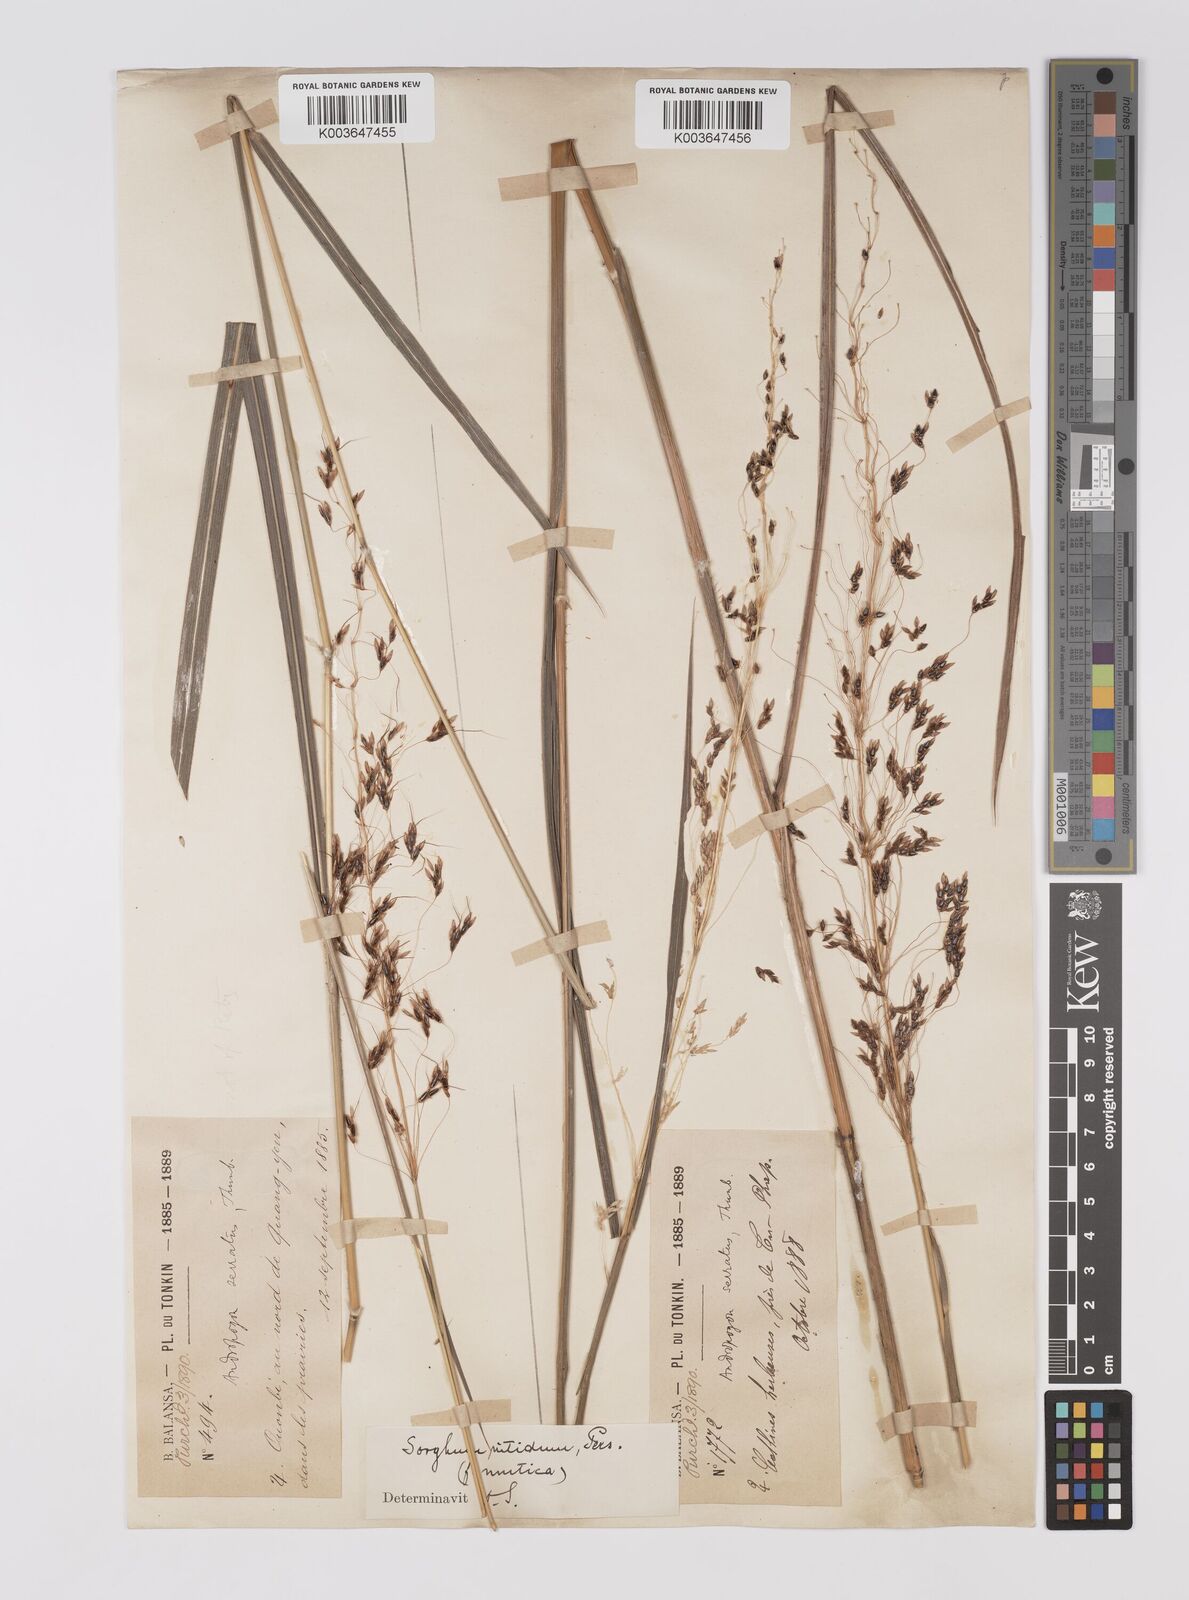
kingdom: Plantae
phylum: Tracheophyta
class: Liliopsida
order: Poales
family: Poaceae
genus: Sorghum
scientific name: Sorghum nitidum
